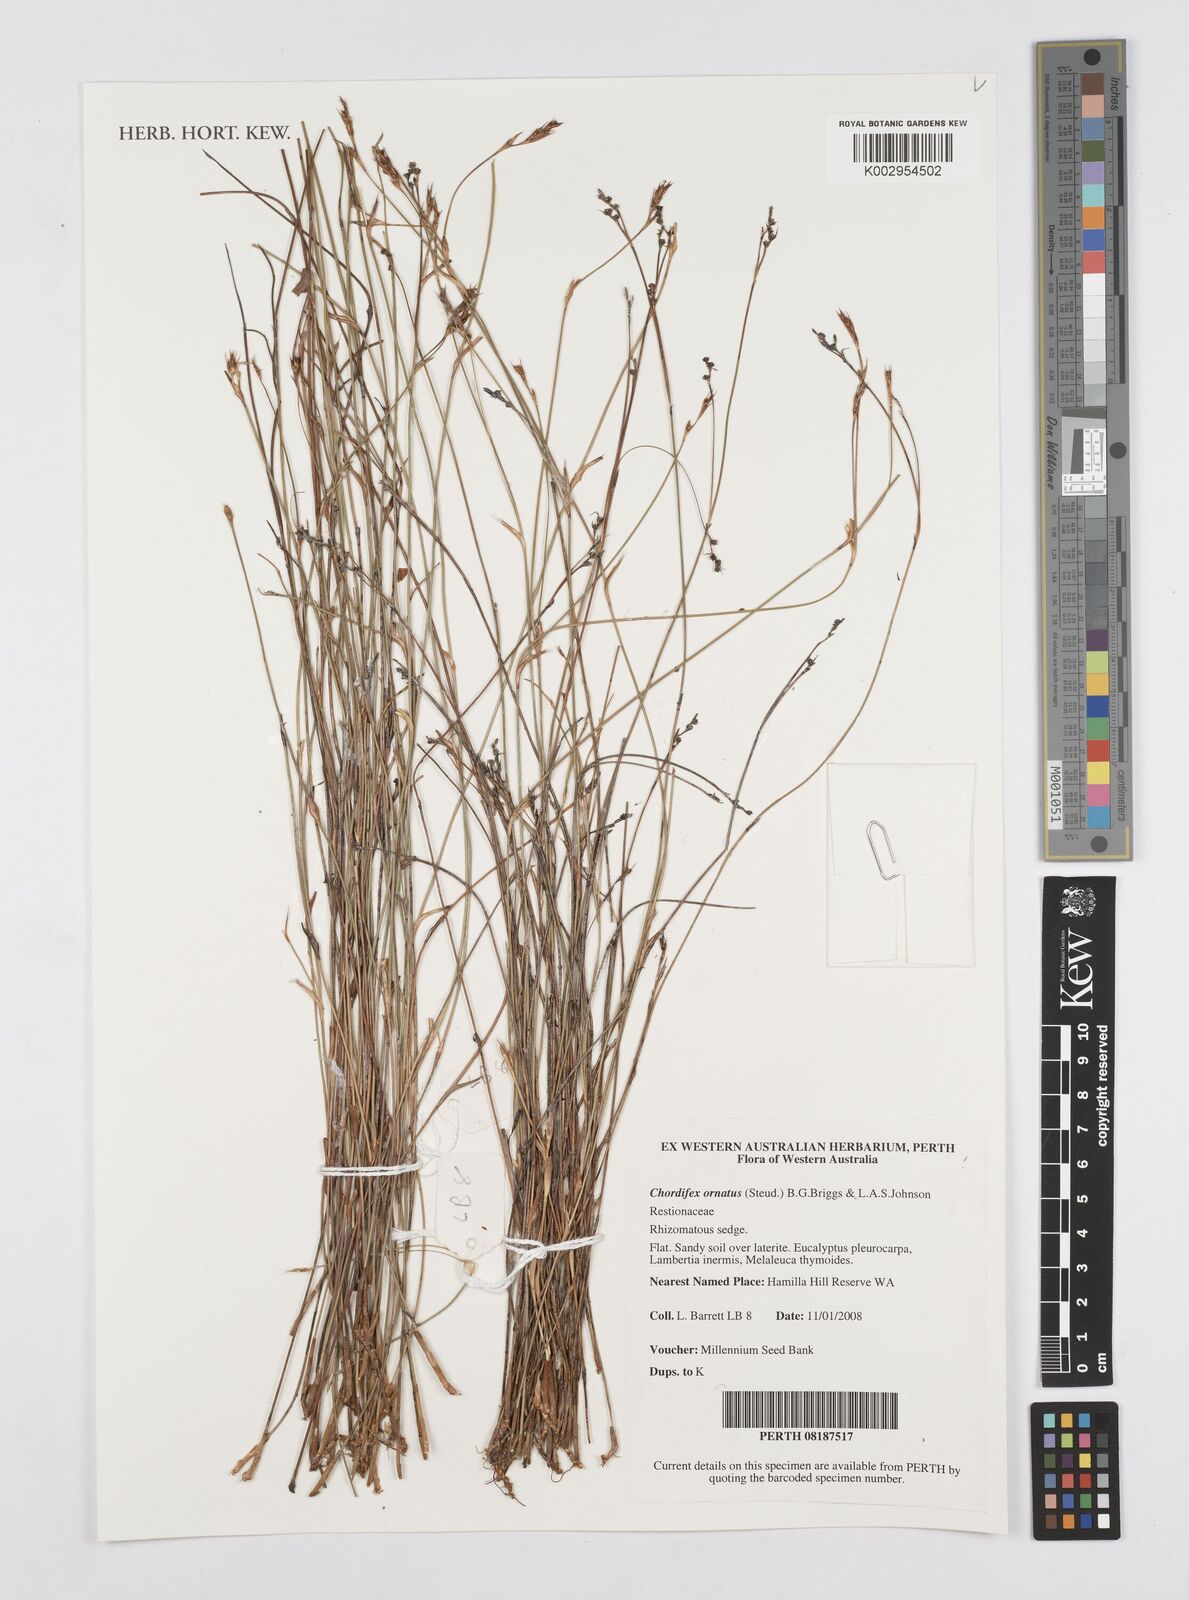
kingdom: Plantae
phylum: Tracheophyta
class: Liliopsida
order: Poales
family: Restionaceae
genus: Chordifex
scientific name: Chordifex ornatus
